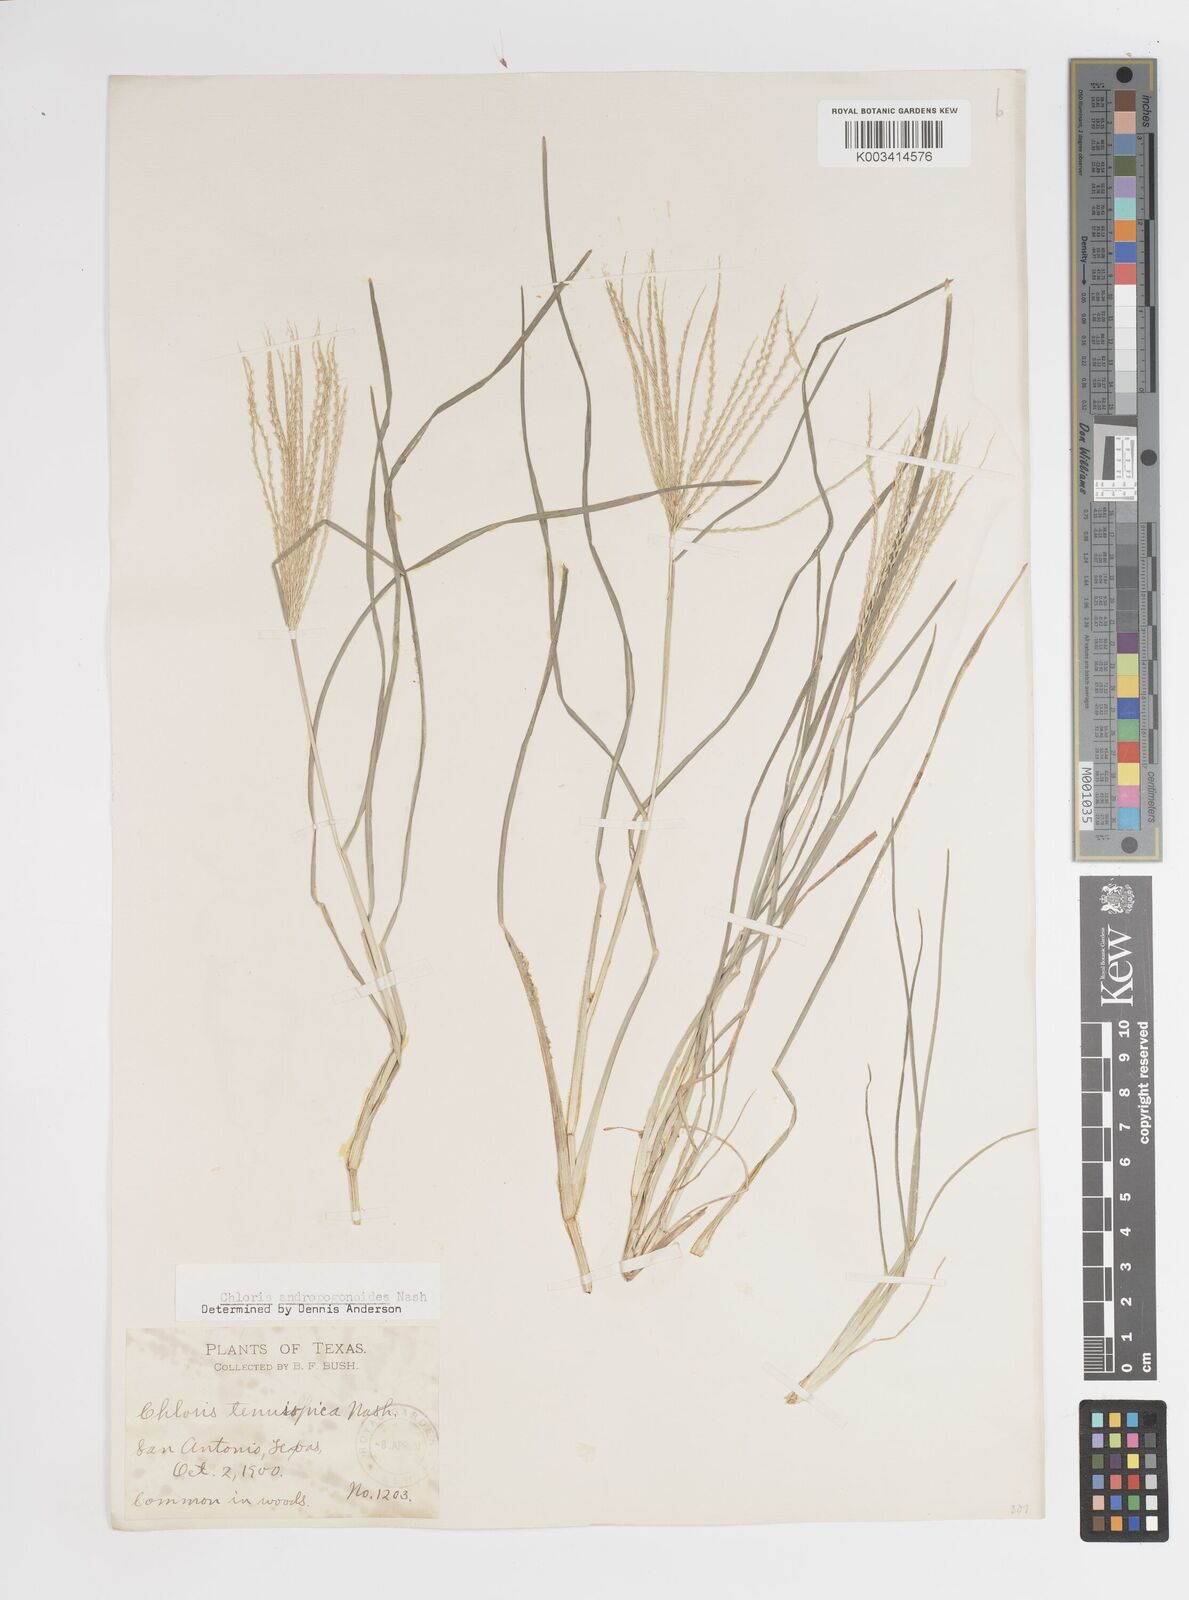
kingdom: Plantae
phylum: Tracheophyta
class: Liliopsida
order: Poales
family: Poaceae
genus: Chloris
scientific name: Chloris andropogonoides
